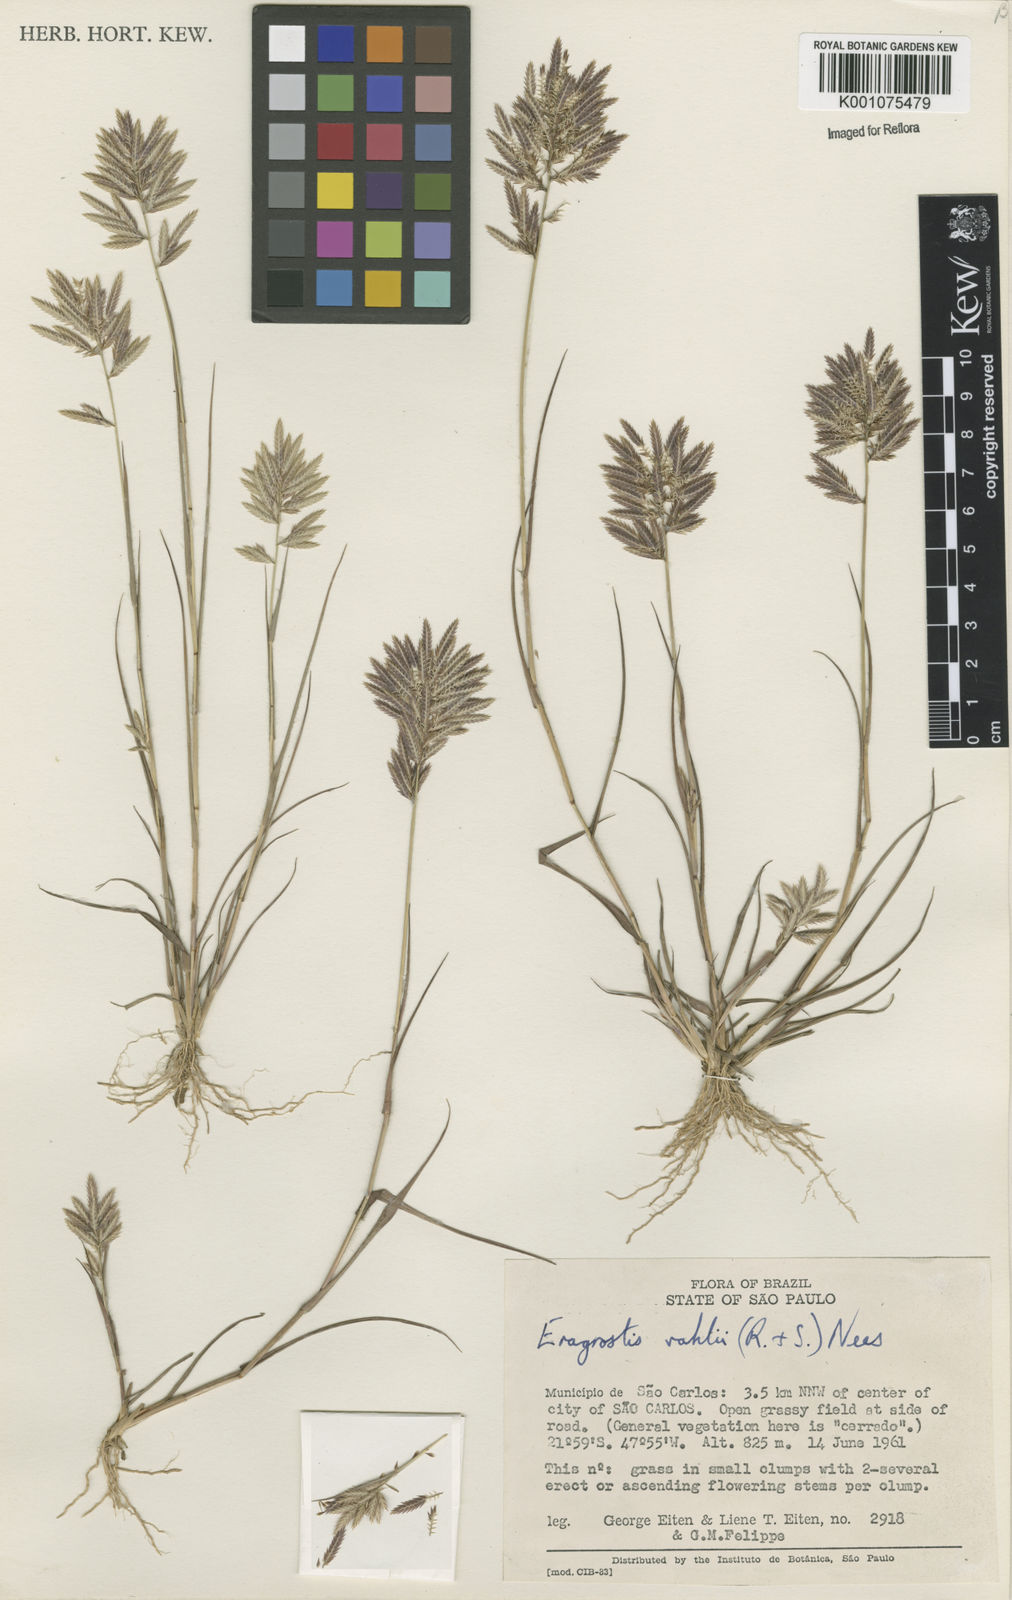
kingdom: Plantae
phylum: Tracheophyta
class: Liliopsida
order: Poales
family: Poaceae
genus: Eragrostis
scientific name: Eragrostis maypurensis
